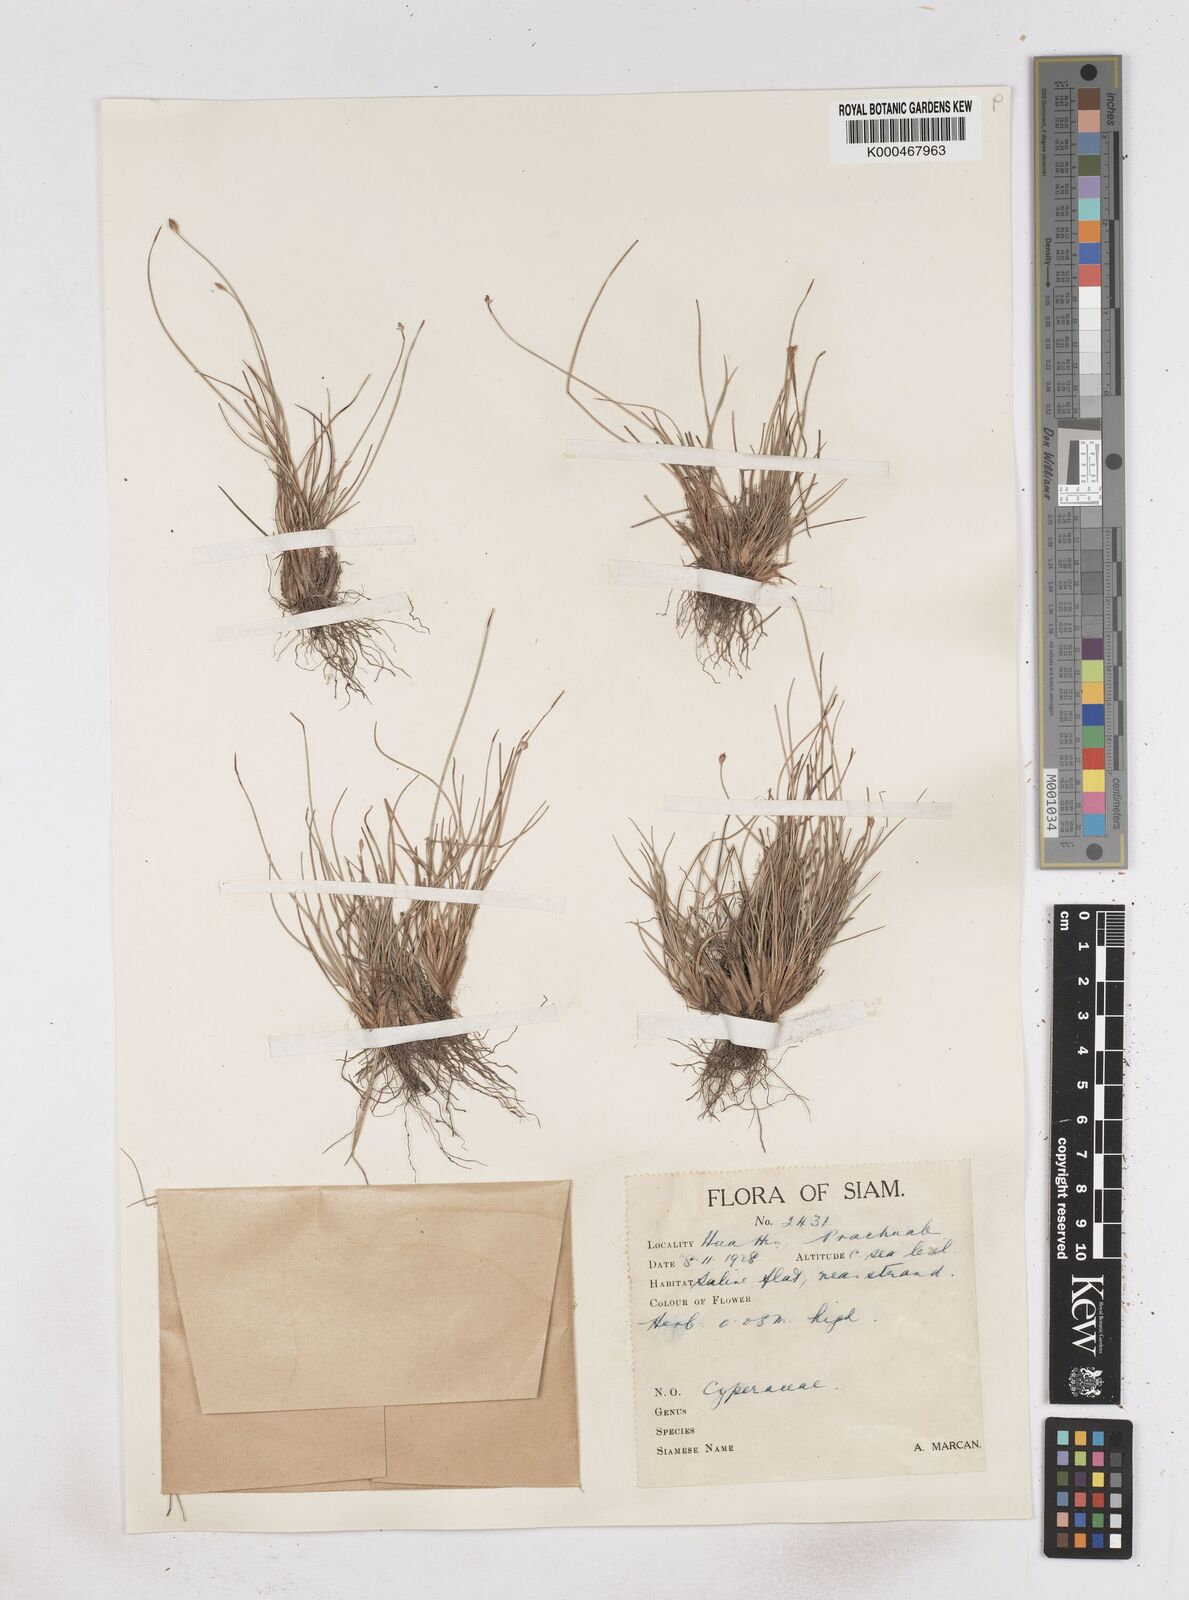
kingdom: Plantae
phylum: Tracheophyta
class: Liliopsida
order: Poales
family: Cyperaceae
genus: Fimbristylis
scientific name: Fimbristylis pauciflora
